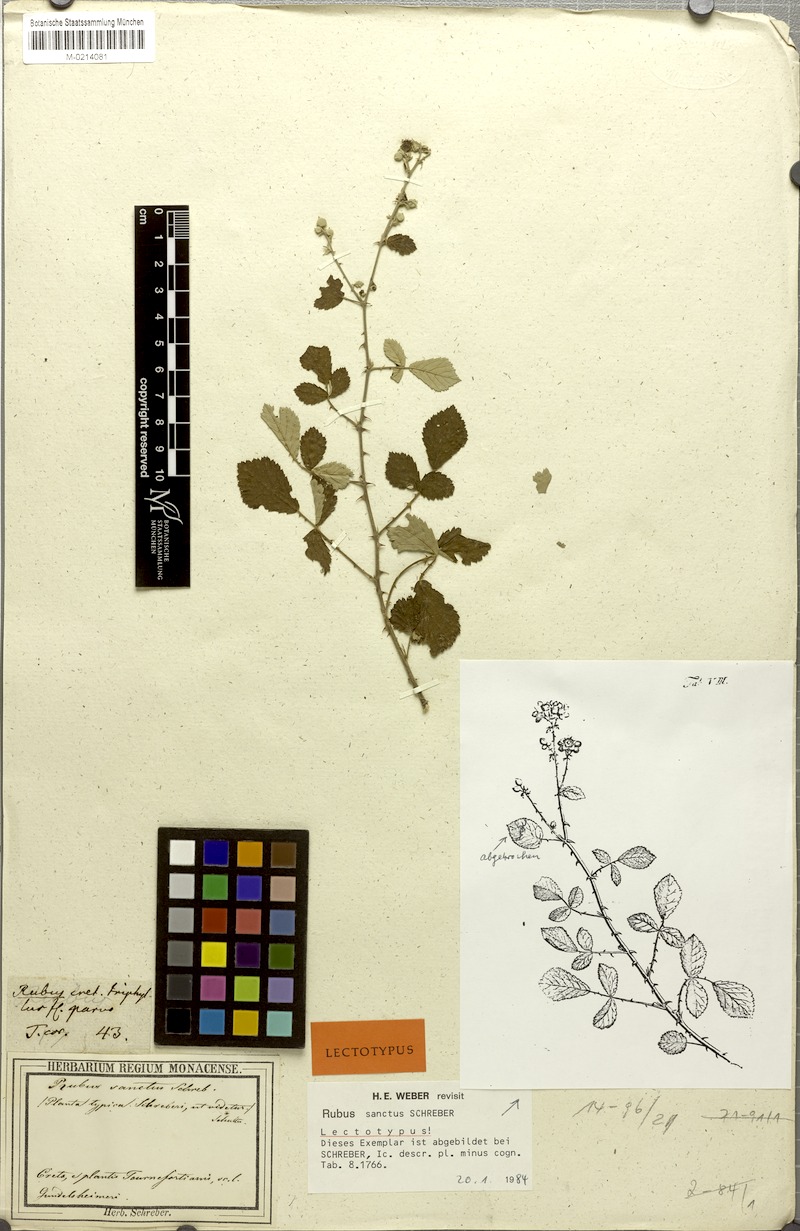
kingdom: Plantae
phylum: Tracheophyta
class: Magnoliopsida
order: Rosales
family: Rosaceae
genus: Rubus
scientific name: Rubus sanctus
